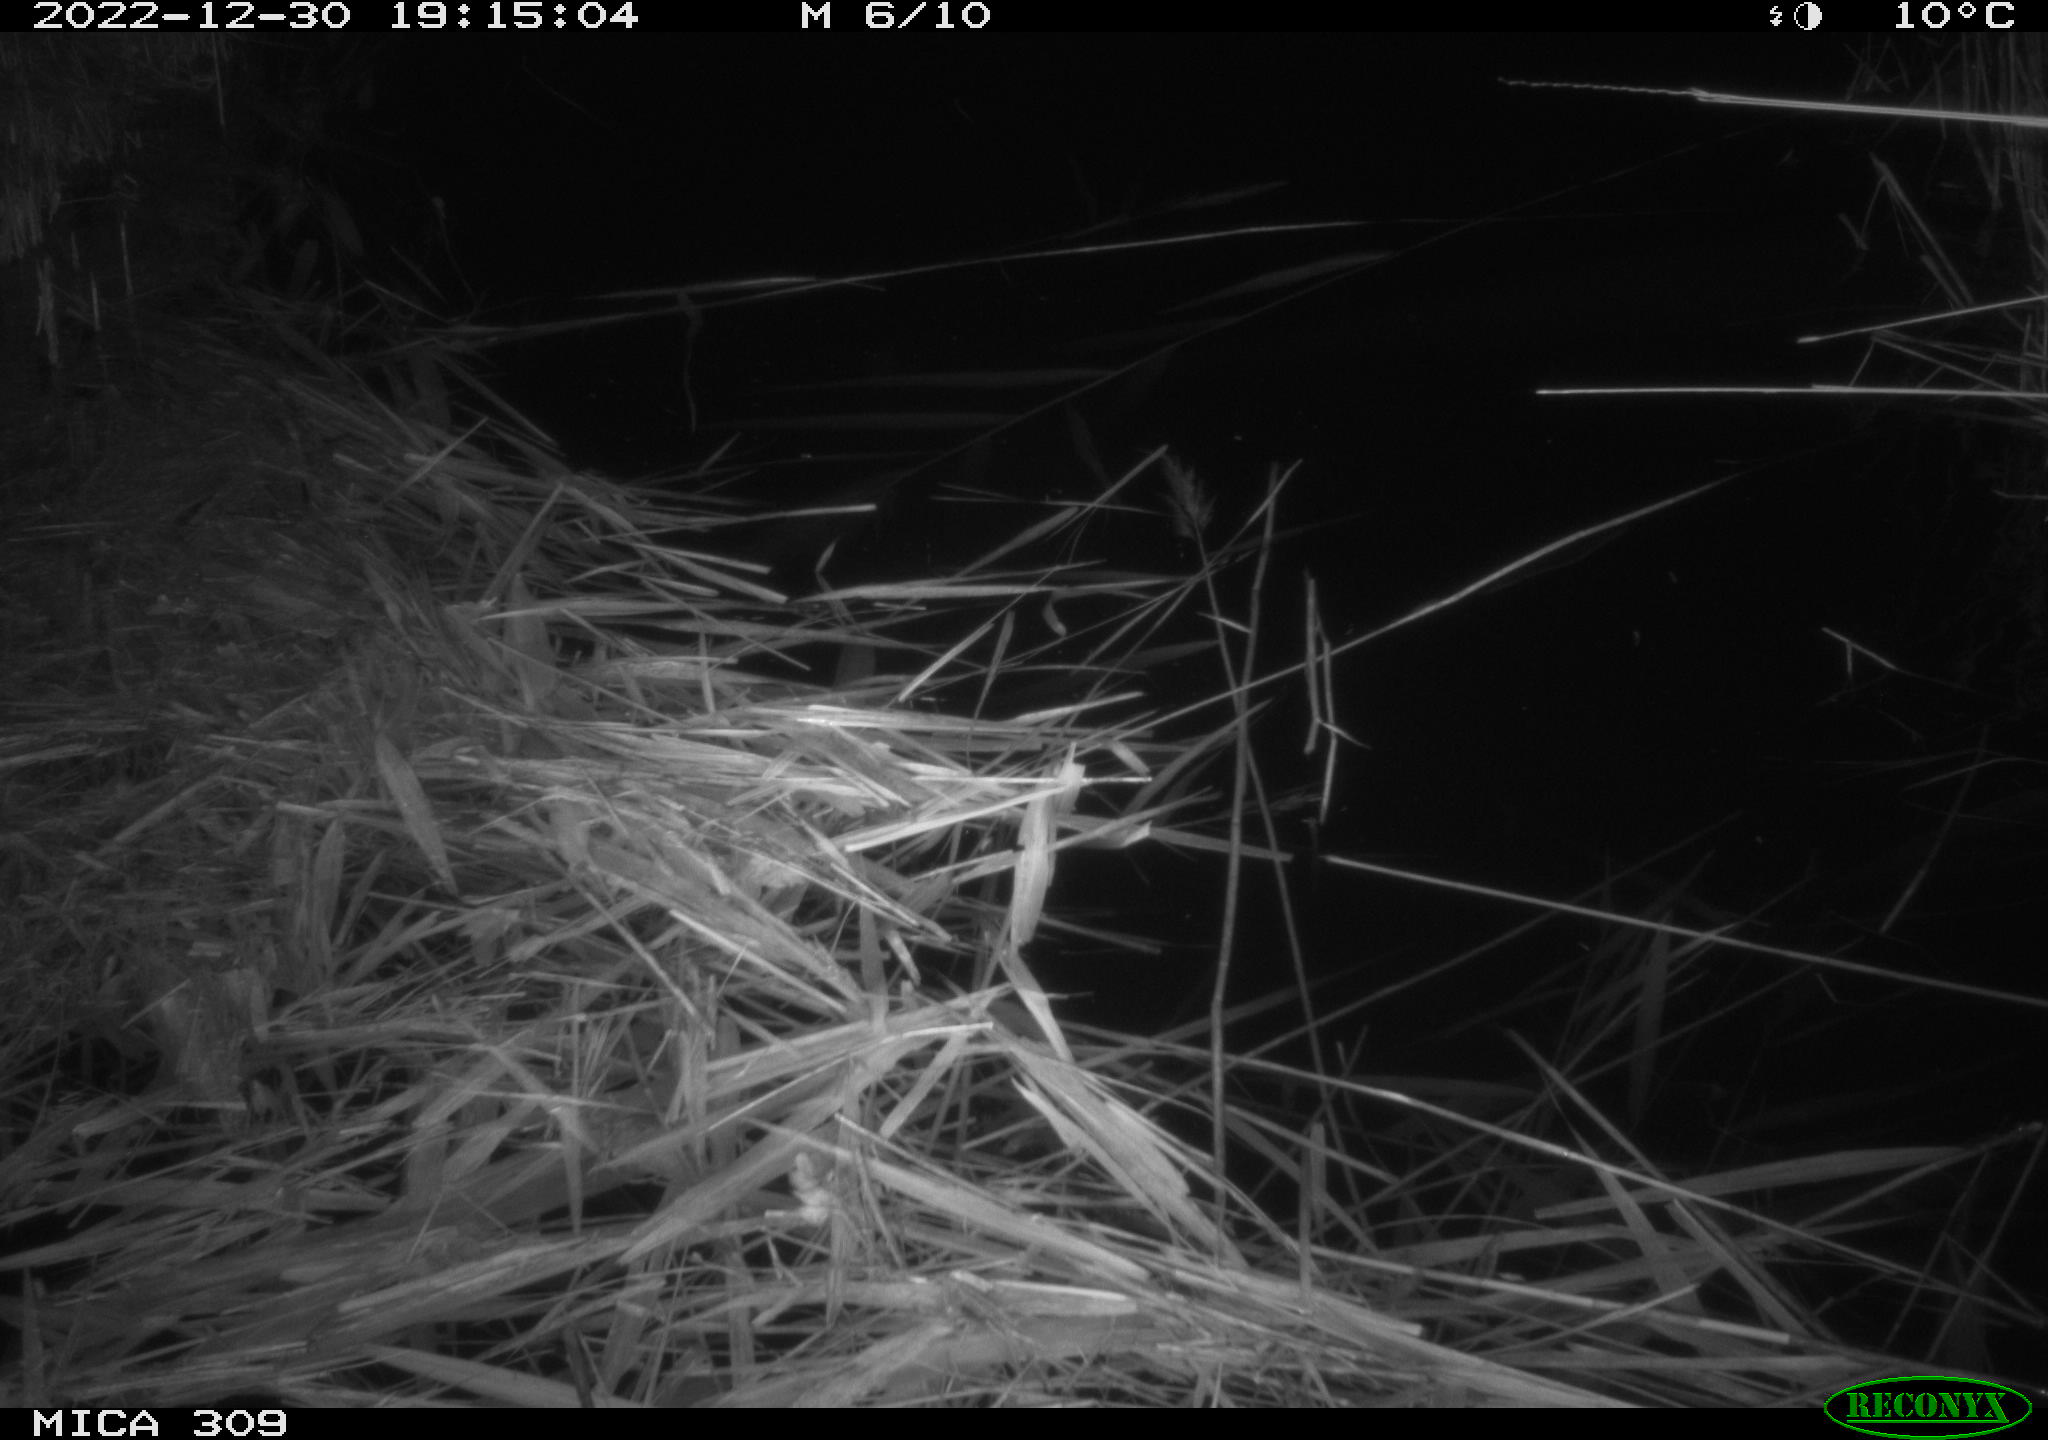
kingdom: Animalia
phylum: Chordata
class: Mammalia
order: Rodentia
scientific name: Rodentia
